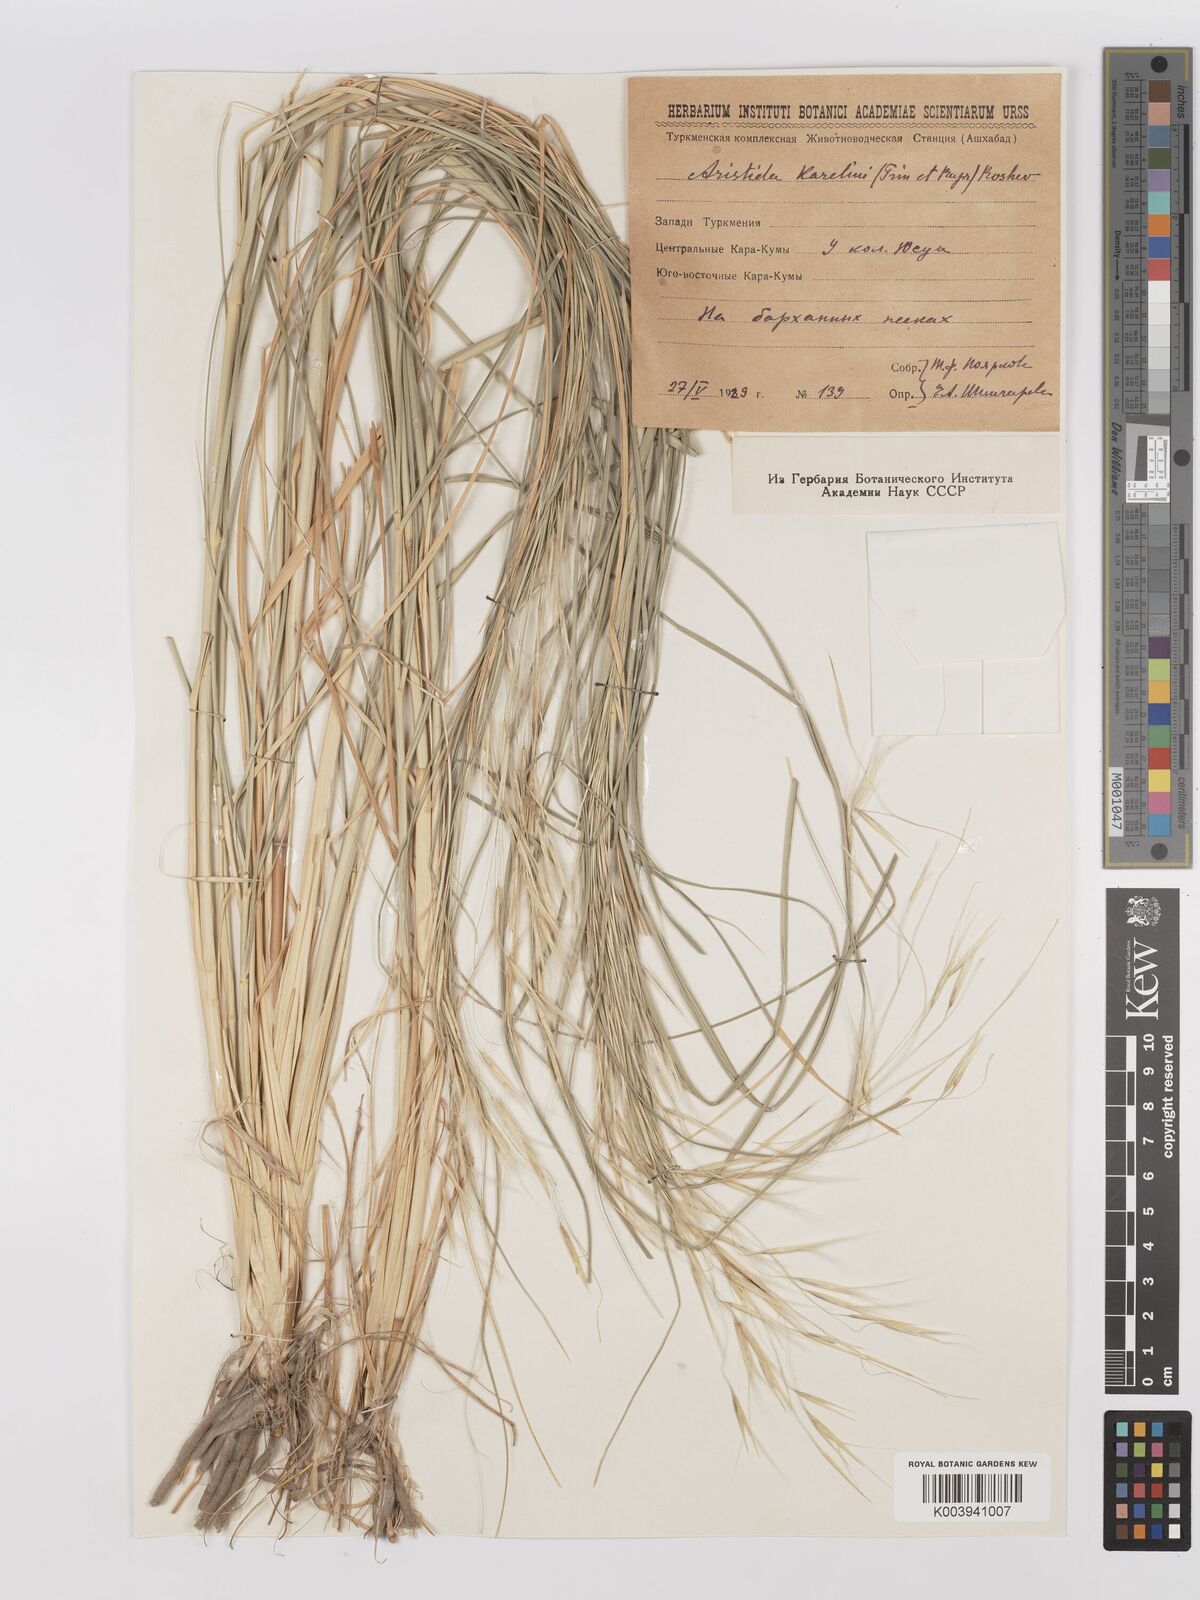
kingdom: Plantae
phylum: Tracheophyta
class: Liliopsida
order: Poales
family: Poaceae
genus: Stipagrostis
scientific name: Stipagrostis karelinii
